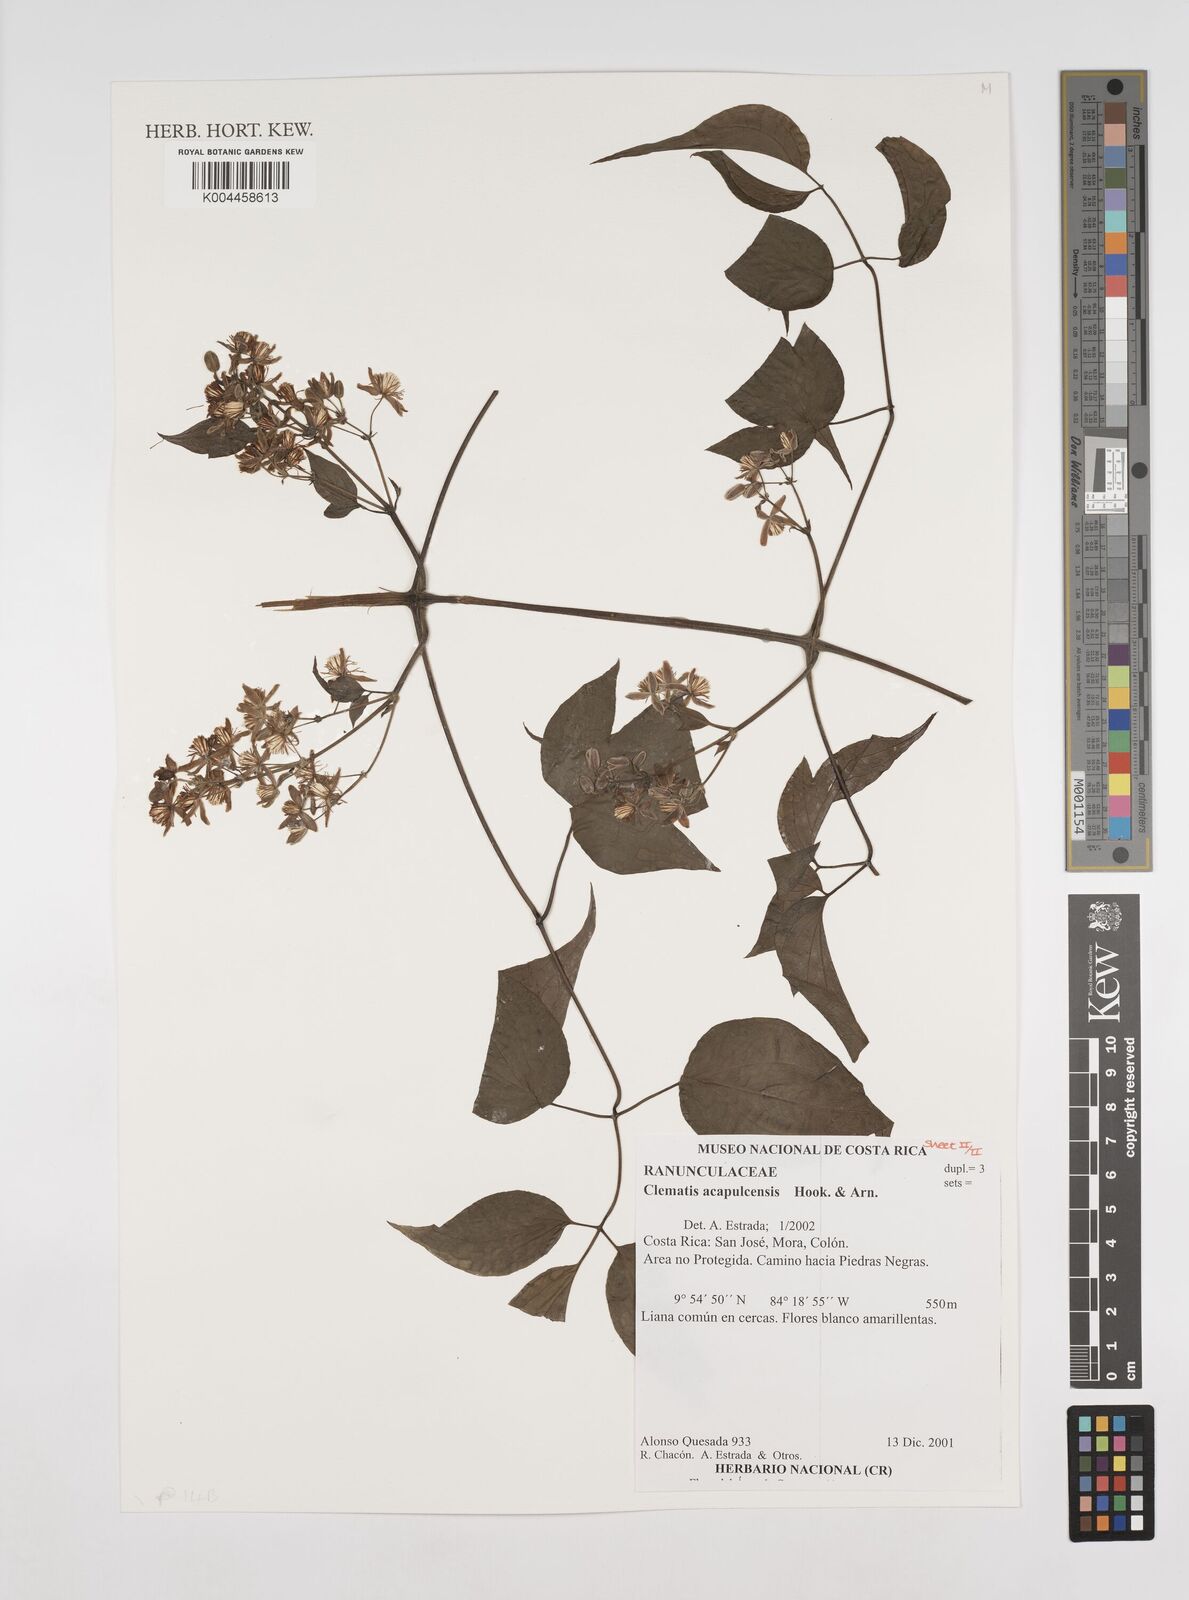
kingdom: Plantae
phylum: Tracheophyta
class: Magnoliopsida
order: Ranunculales
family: Ranunculaceae
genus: Clematis
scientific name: Clematis acapulcensis
